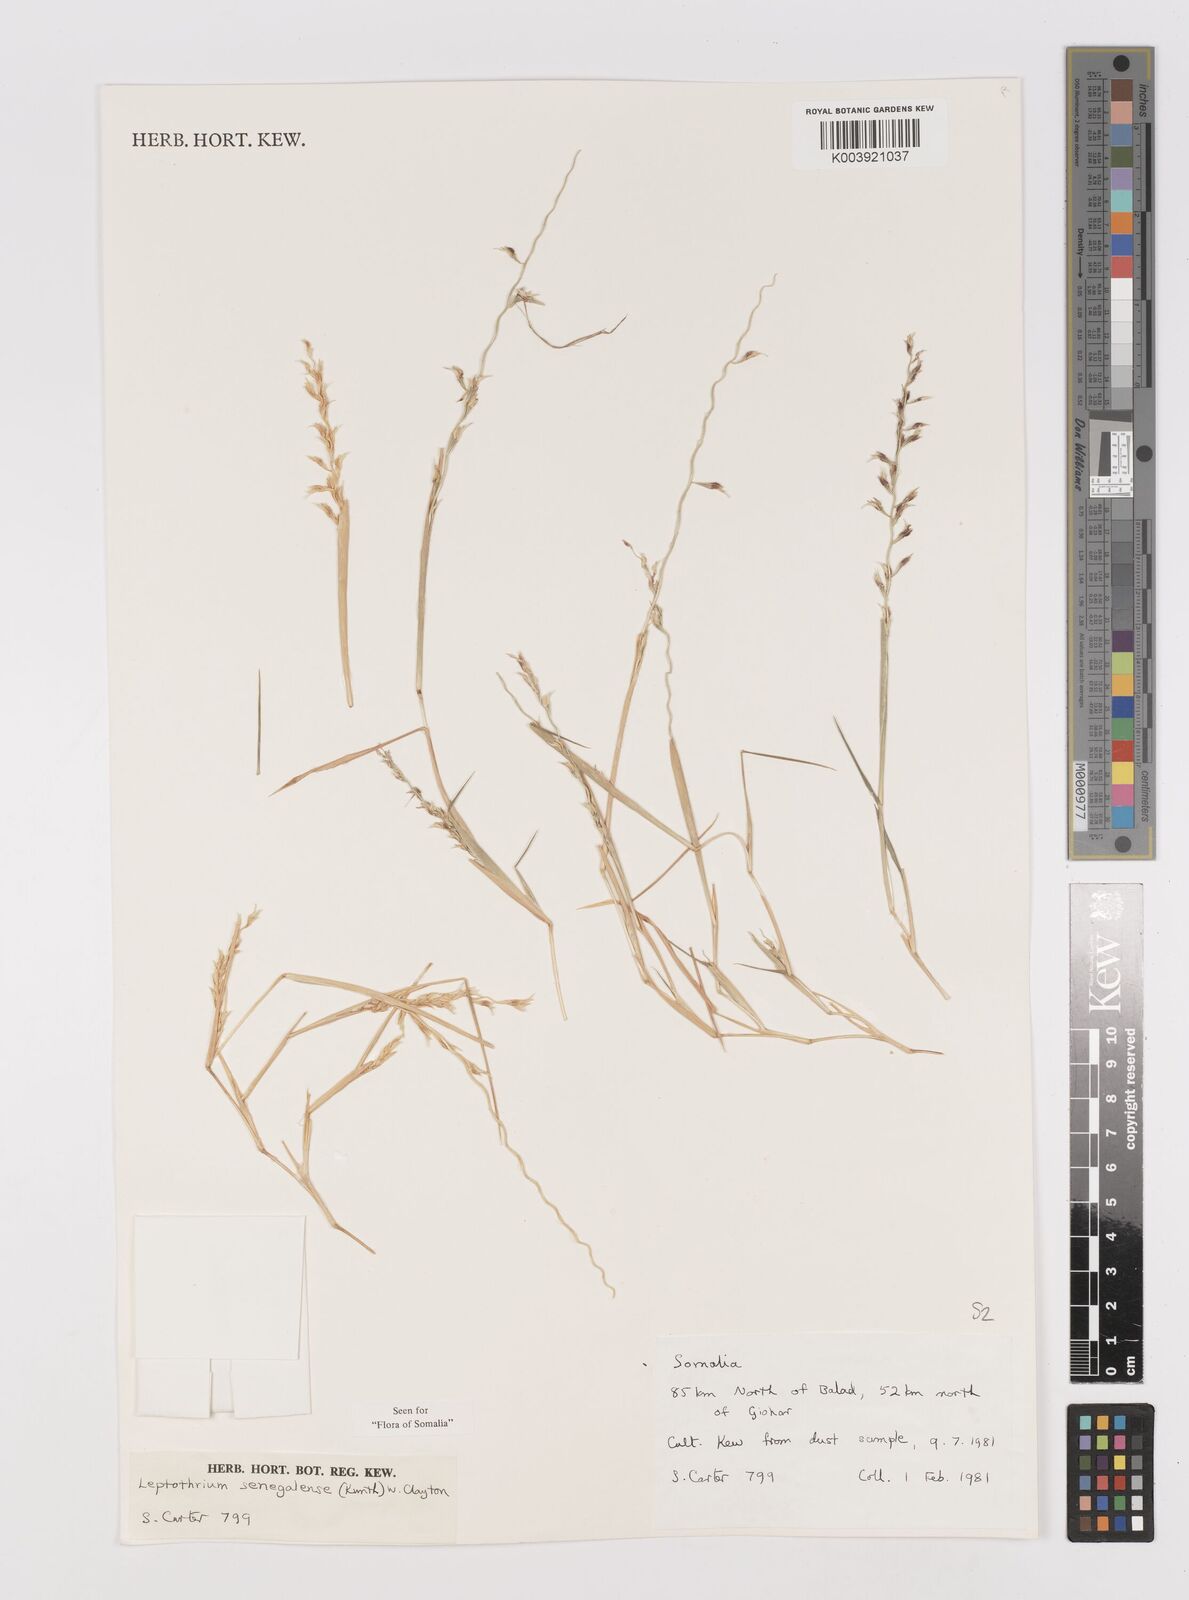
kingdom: Plantae
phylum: Tracheophyta
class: Liliopsida
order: Poales
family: Poaceae
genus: Leptothrium
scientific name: Leptothrium senegalense
